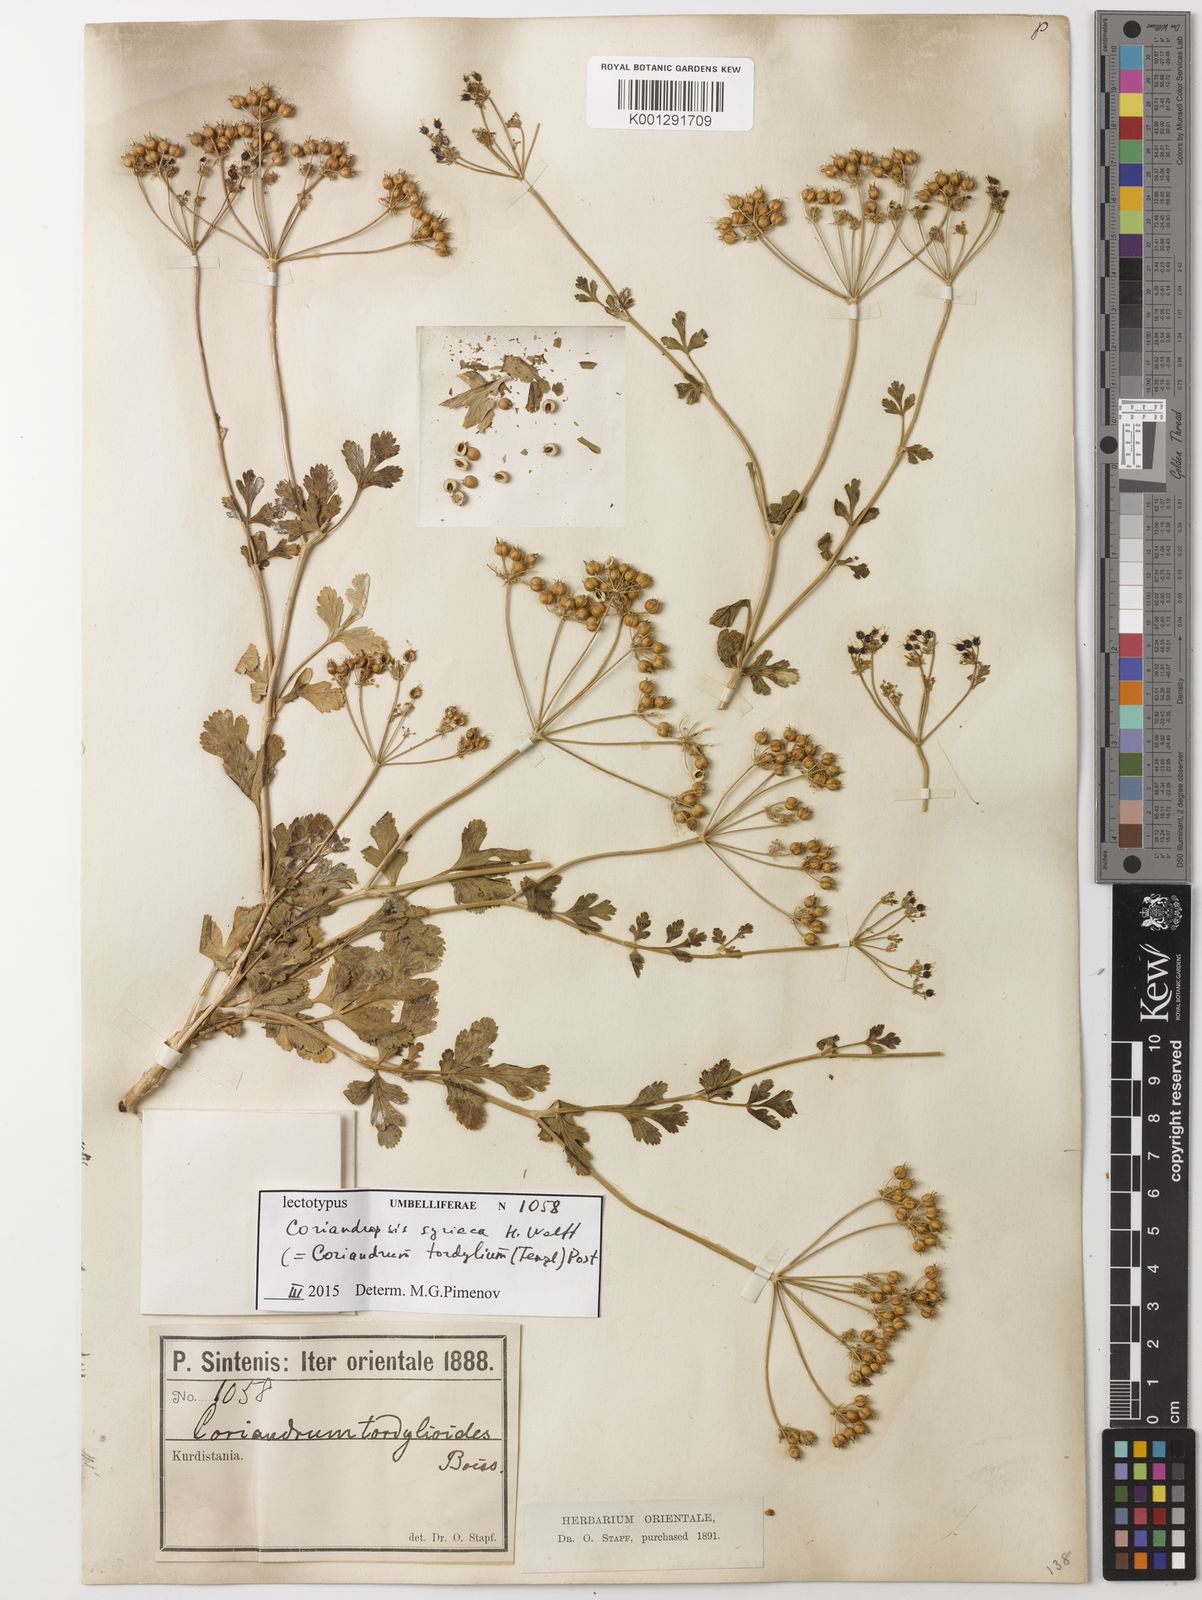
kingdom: Plantae
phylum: Tracheophyta
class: Magnoliopsida
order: Apiales
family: Apiaceae
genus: Coriandrum
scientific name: Coriandrum tordylium
